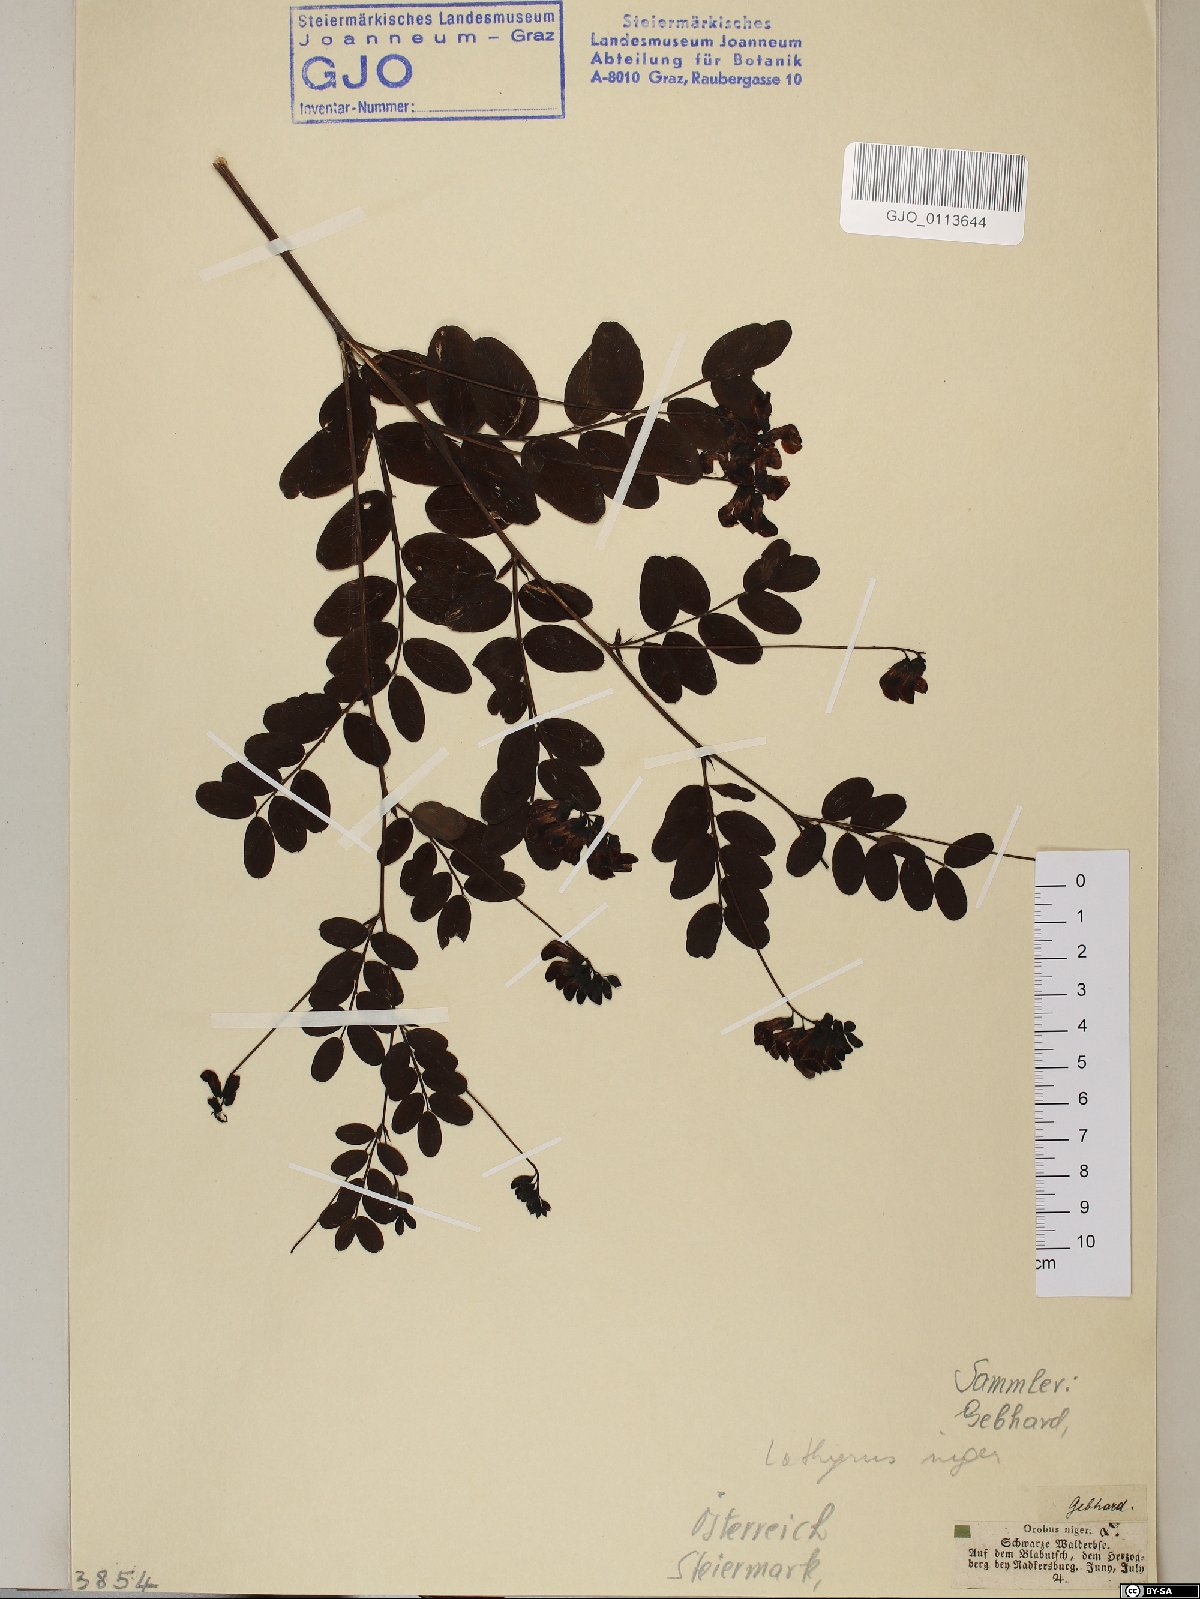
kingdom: Plantae
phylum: Tracheophyta
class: Magnoliopsida
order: Fabales
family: Fabaceae
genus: Lathyrus
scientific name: Lathyrus niger
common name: Black pea
